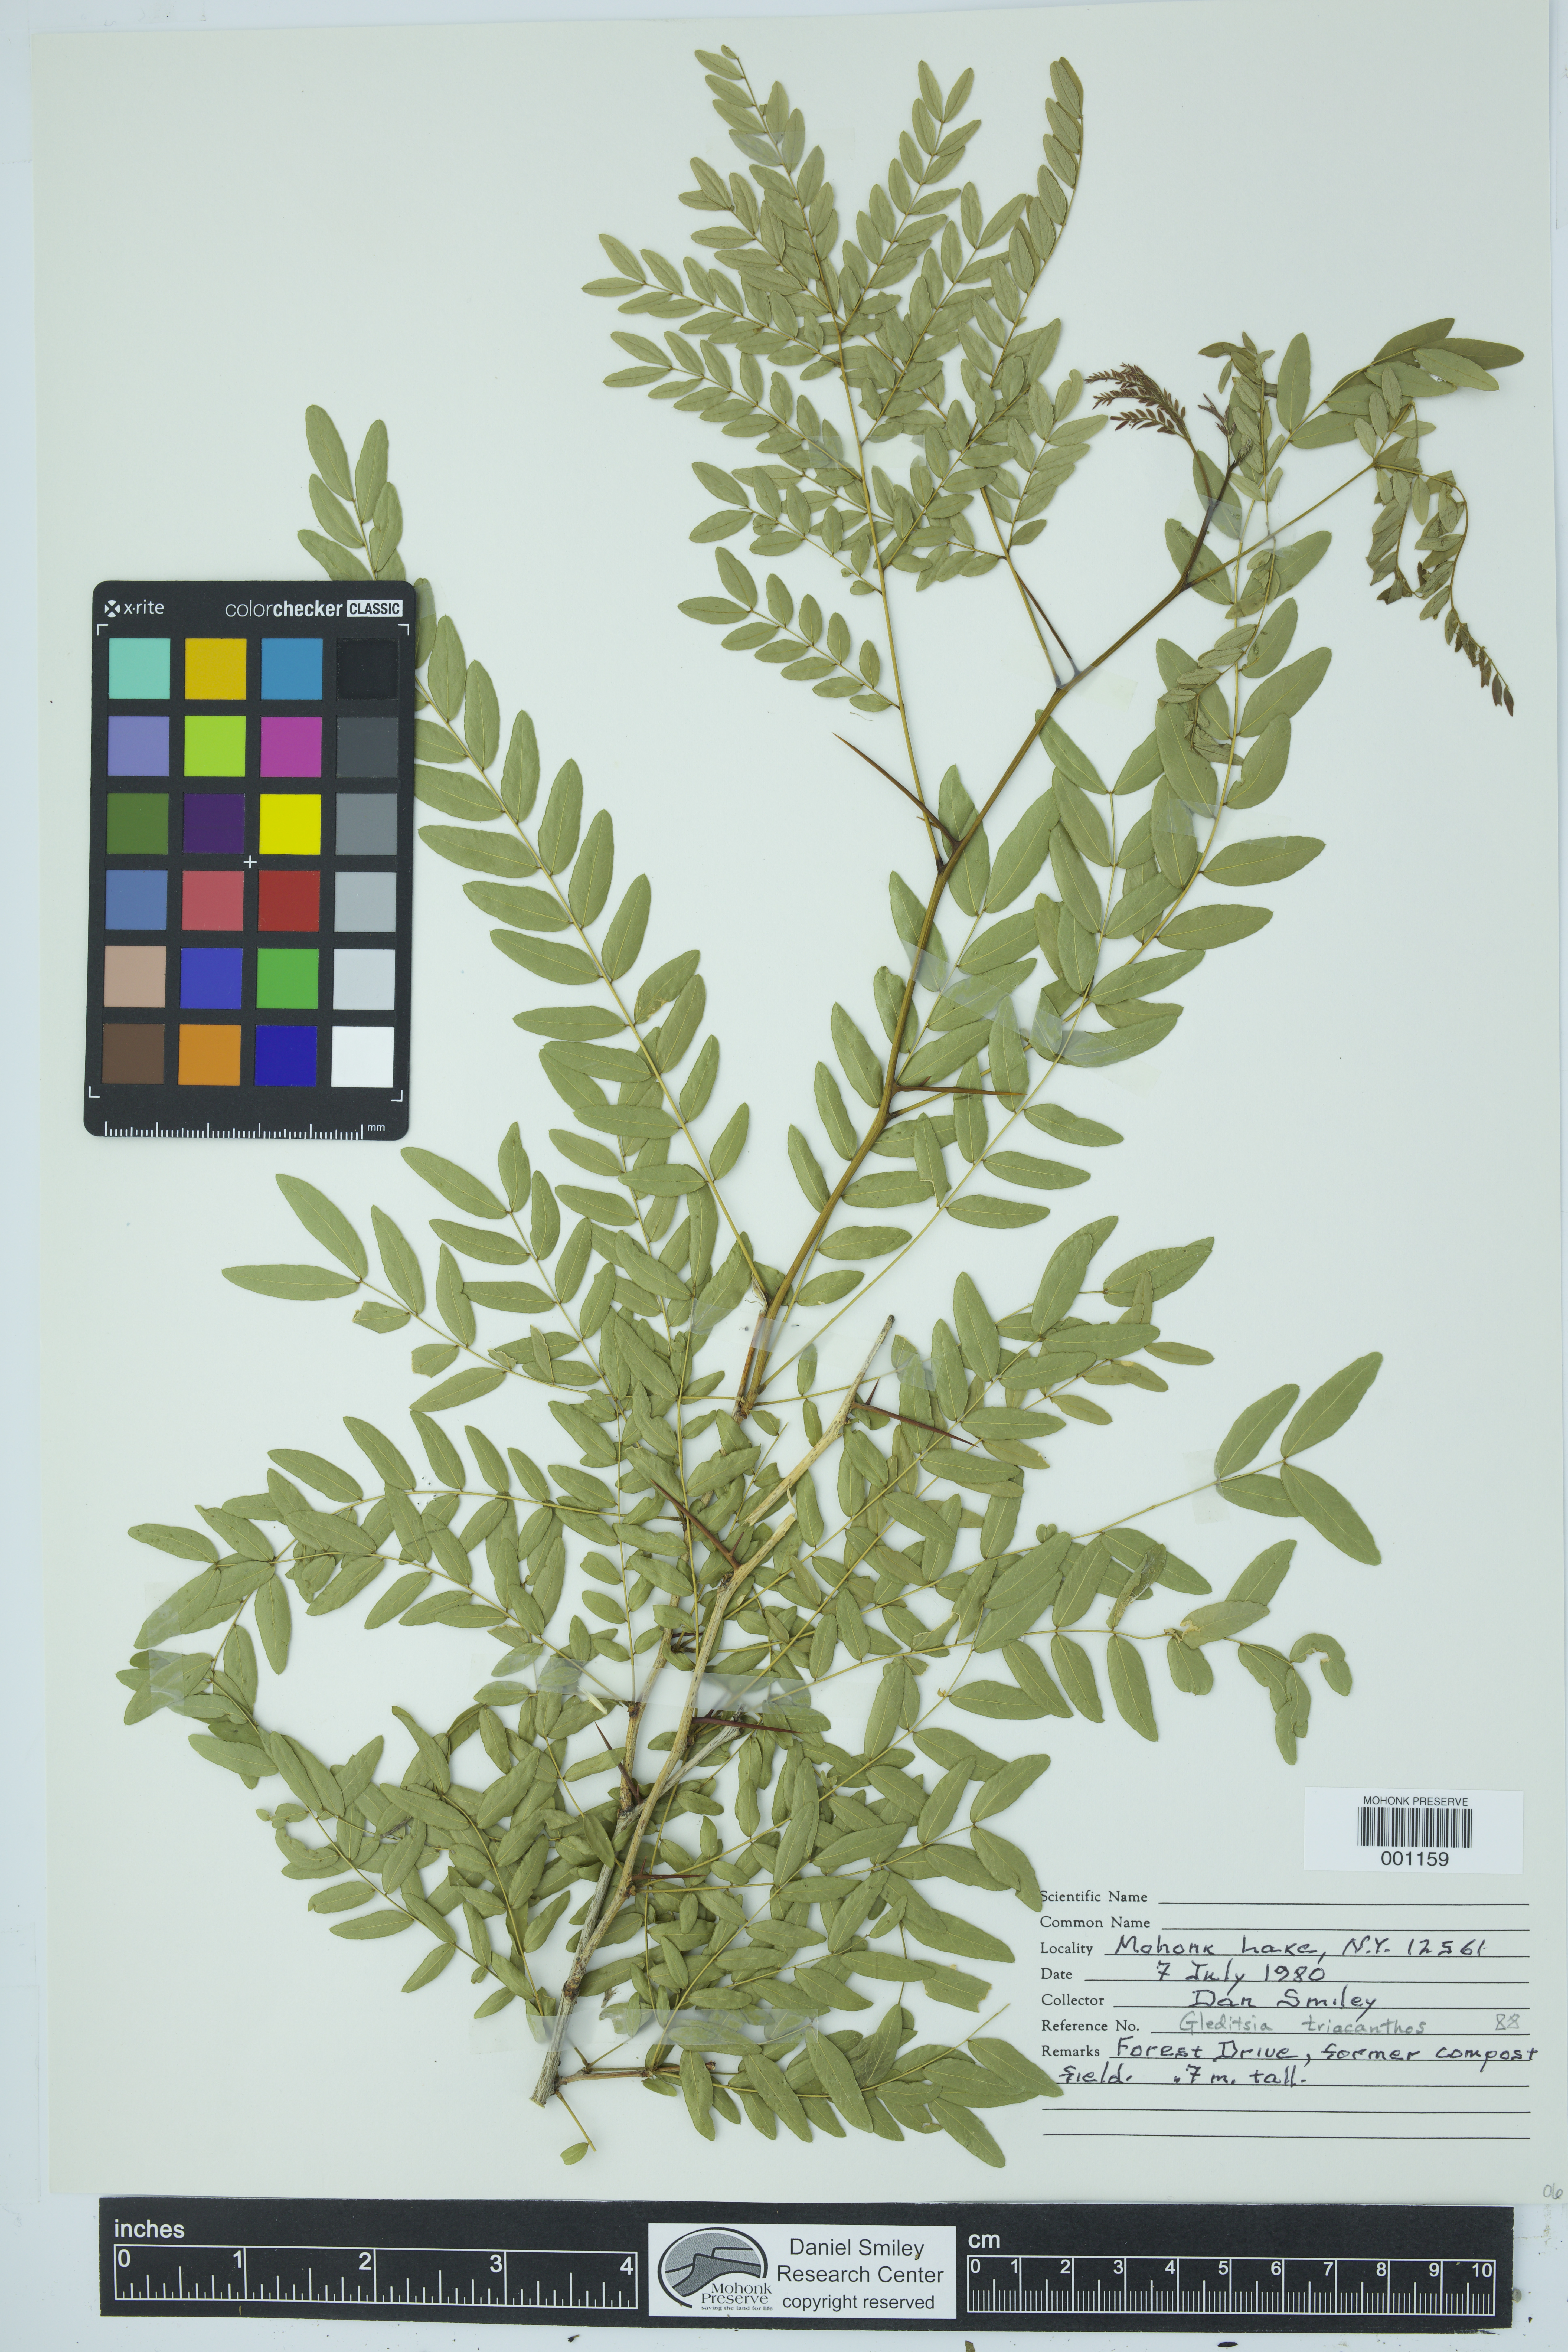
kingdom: Plantae
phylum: Tracheophyta
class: Magnoliopsida
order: Fabales
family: Fabaceae
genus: Gleditsia
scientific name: Gleditsia triacanthos
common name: Common honeylocust
